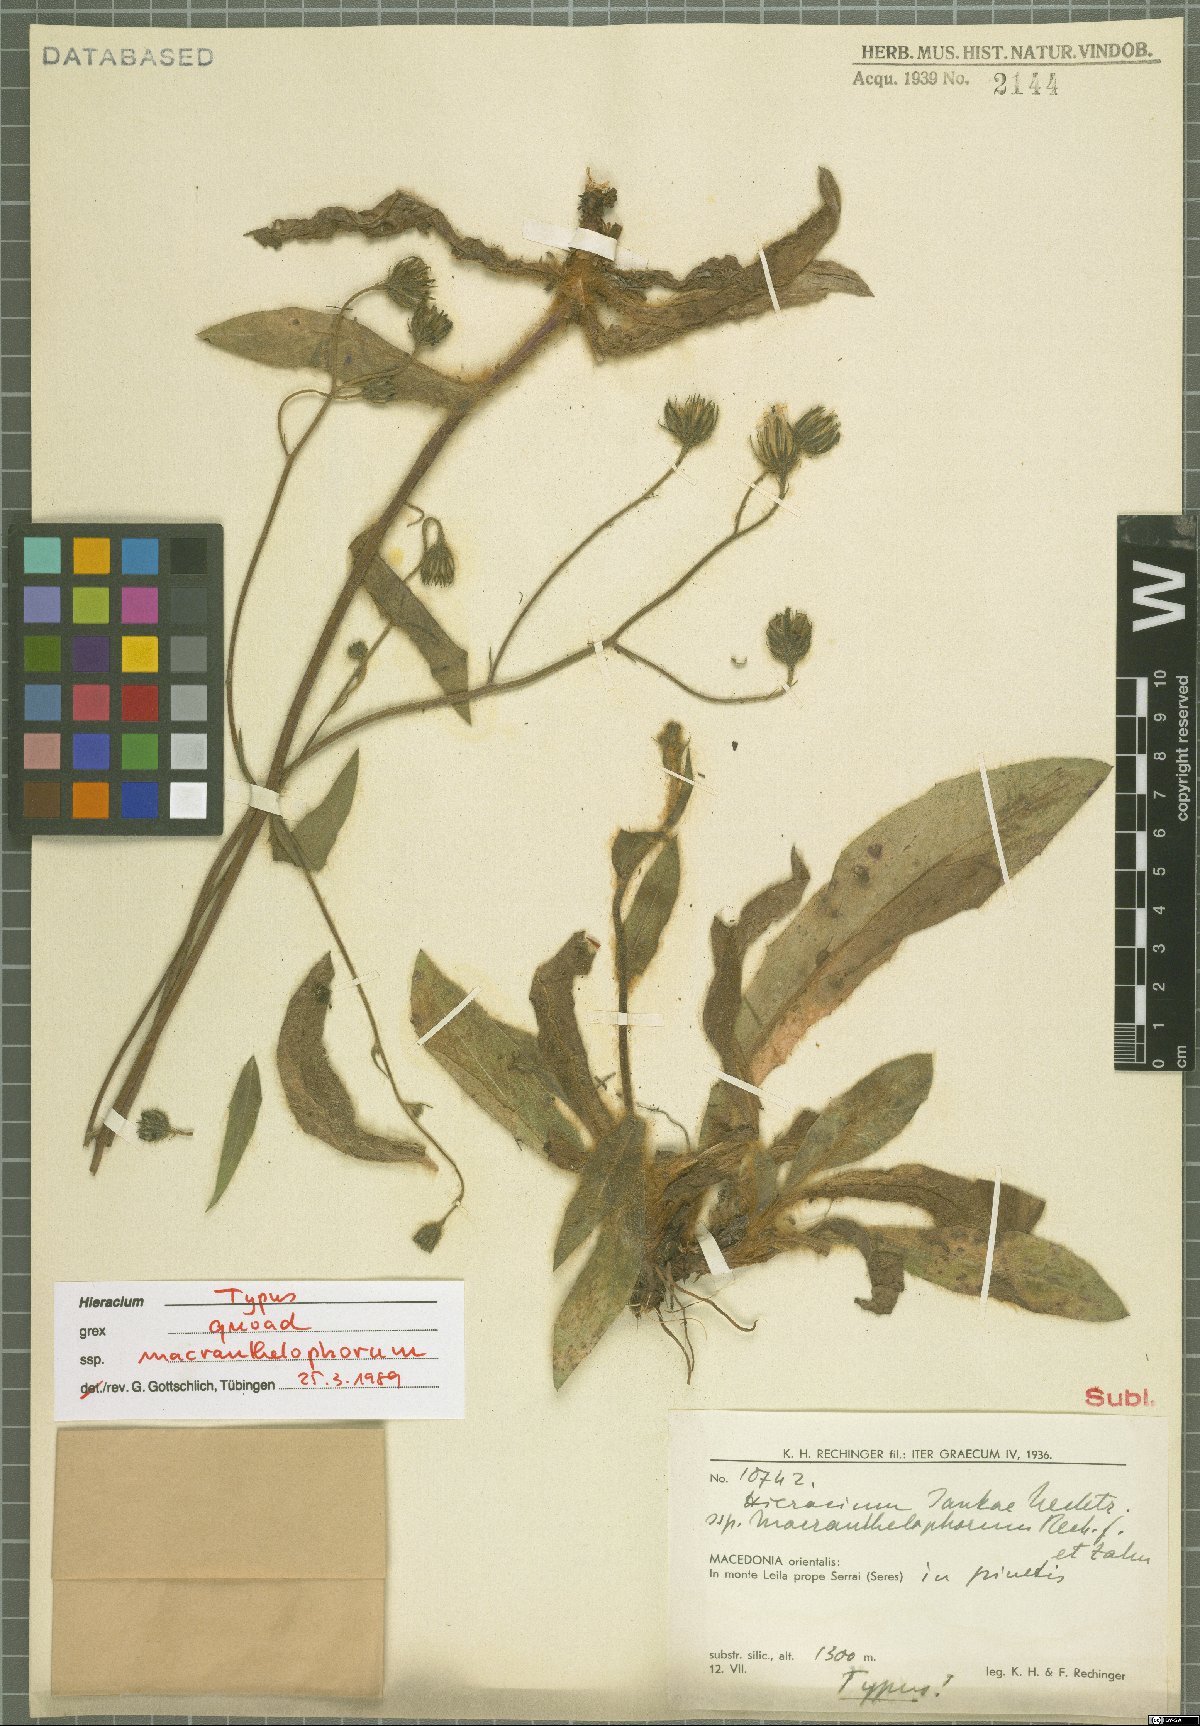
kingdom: Plantae
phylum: Tracheophyta
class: Magnoliopsida
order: Asterales
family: Asteraceae
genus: Hieracium
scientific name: Hieracium jankae
